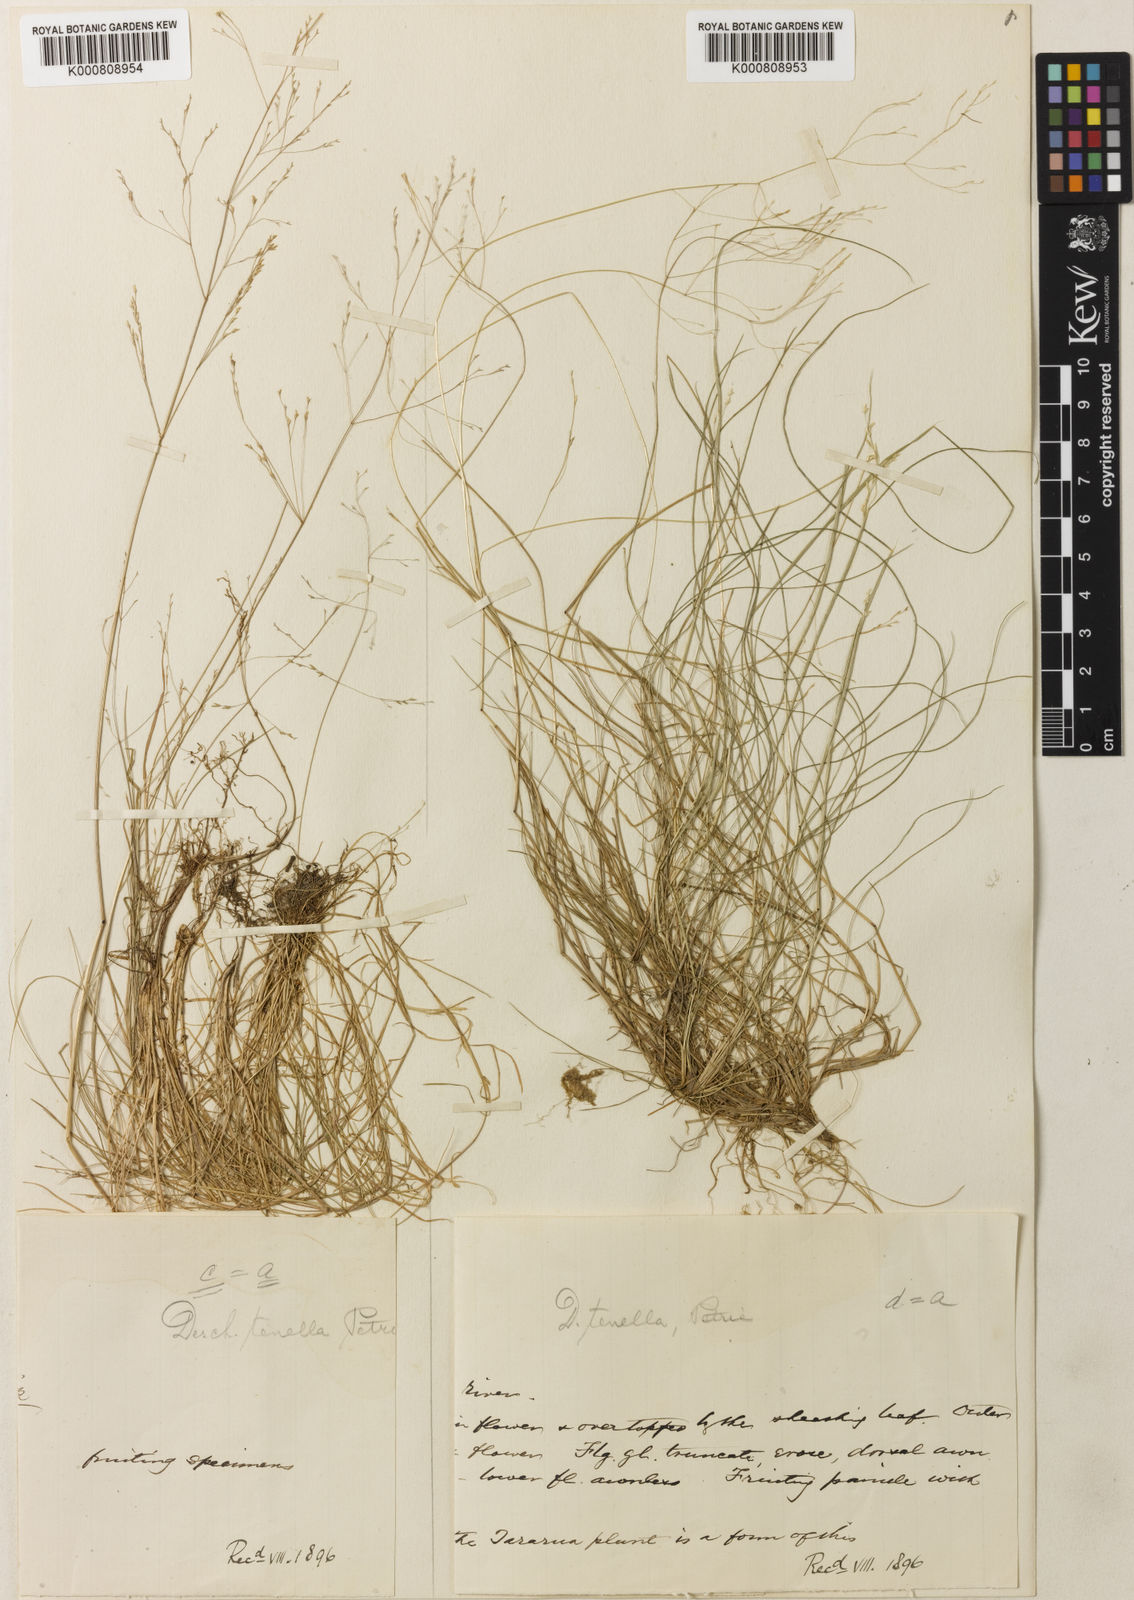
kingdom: Plantae
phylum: Tracheophyta
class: Liliopsida
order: Poales
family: Poaceae
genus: Deschampsia
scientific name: Deschampsia tenella
